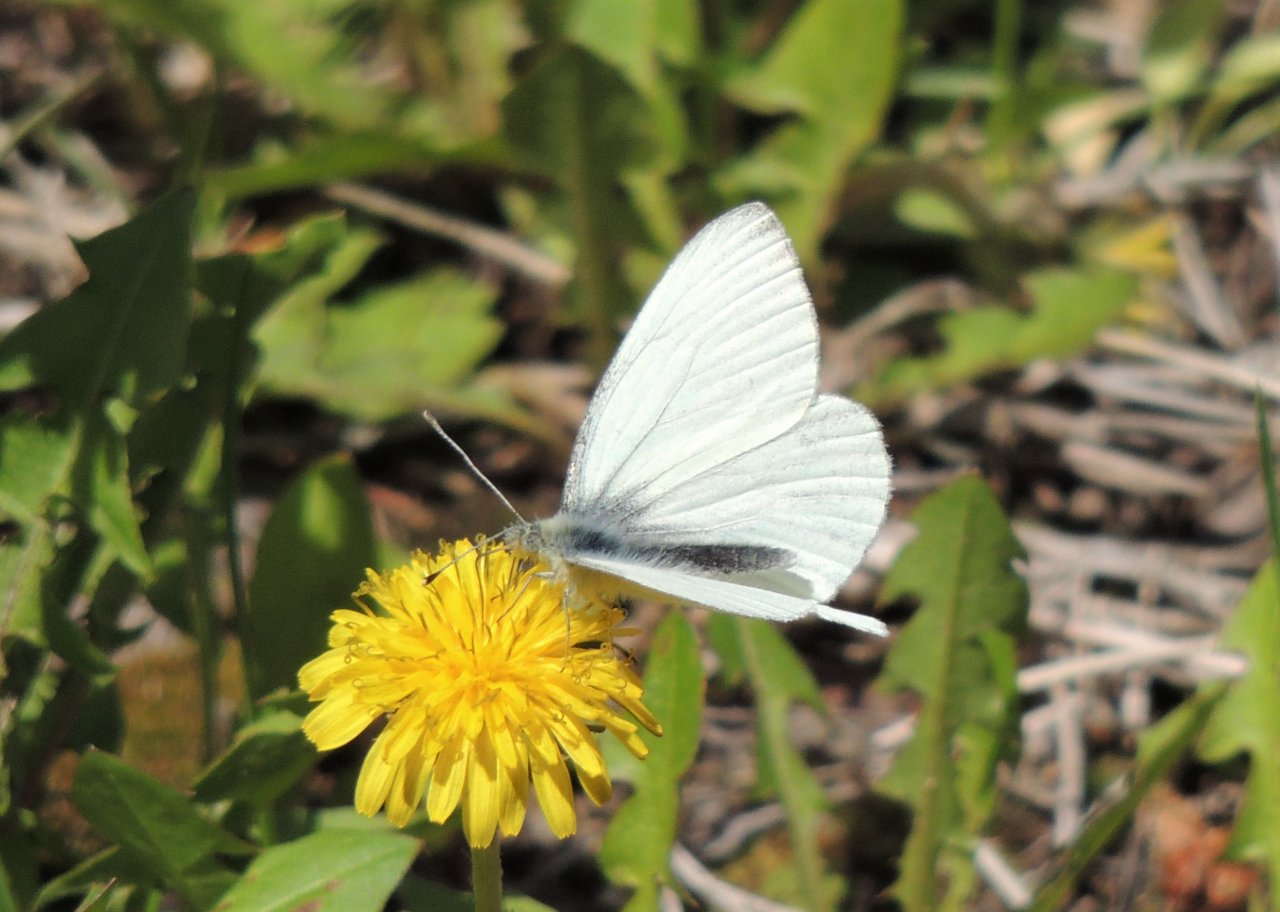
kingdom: Animalia
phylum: Arthropoda
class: Insecta
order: Lepidoptera
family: Pieridae
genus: Pieris
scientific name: Pieris marginalis
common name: Margined White
